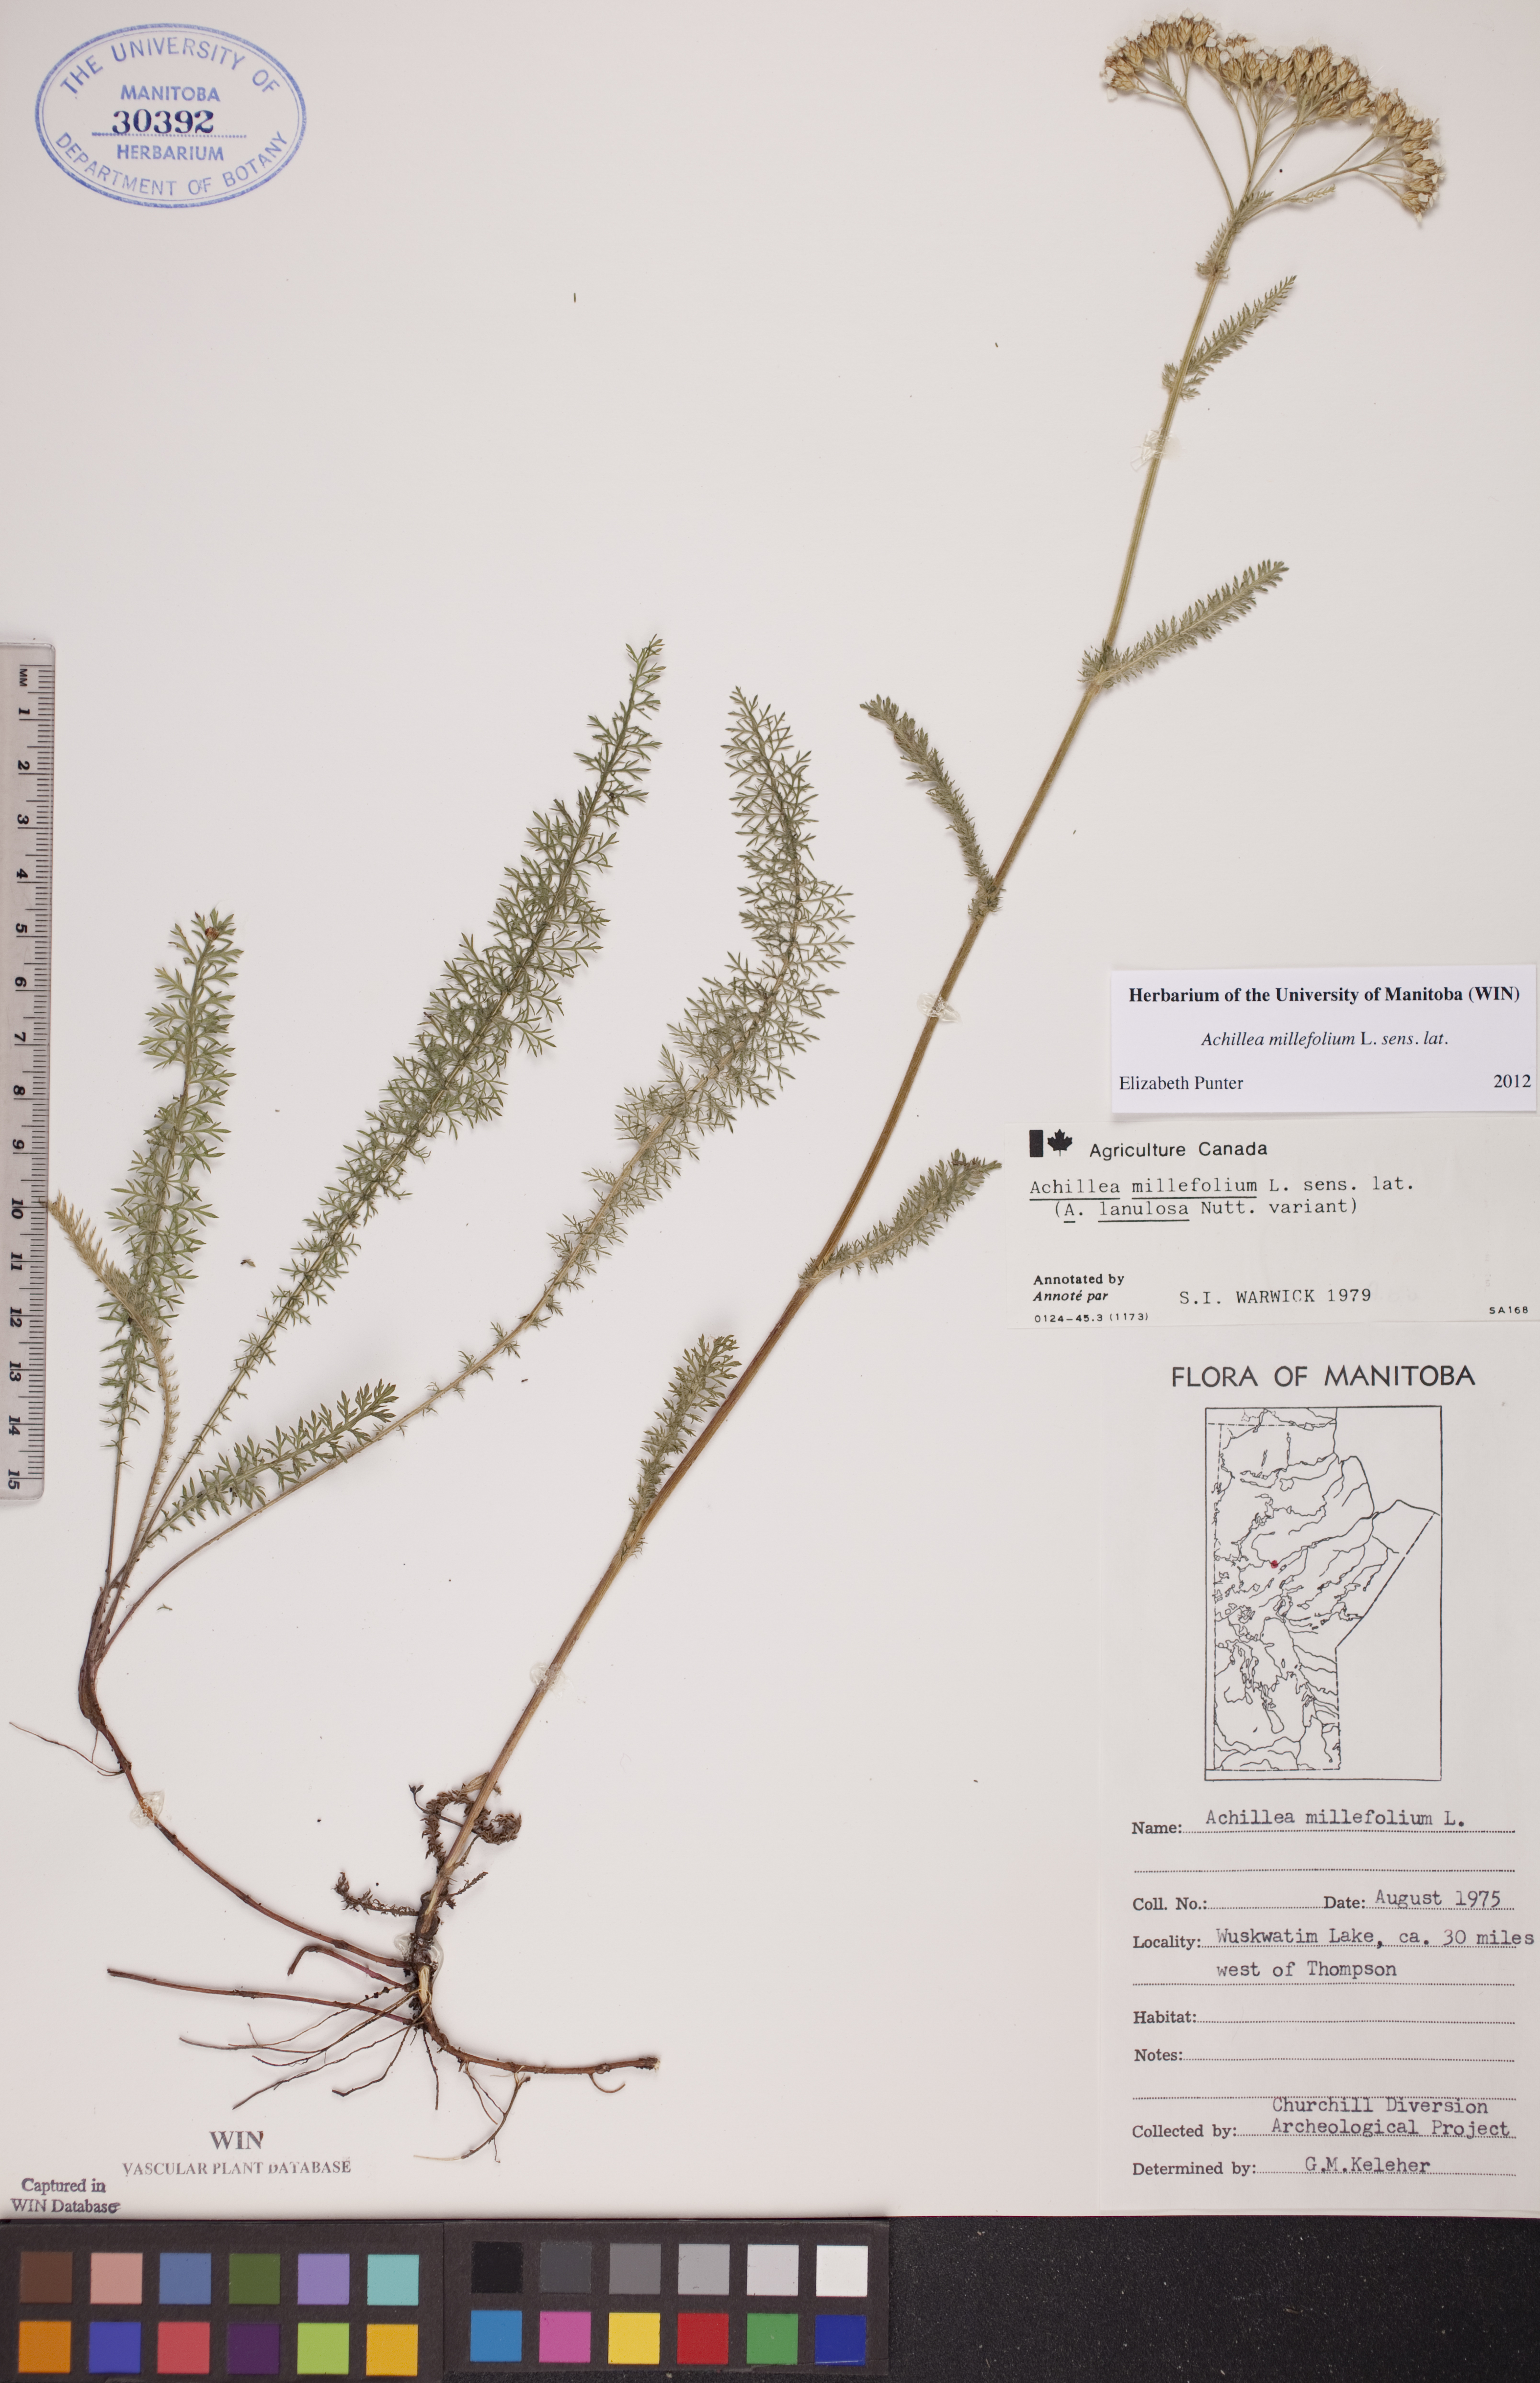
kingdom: Plantae
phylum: Tracheophyta
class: Magnoliopsida
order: Asterales
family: Asteraceae
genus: Achillea
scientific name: Achillea millefolium
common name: Yarrow
